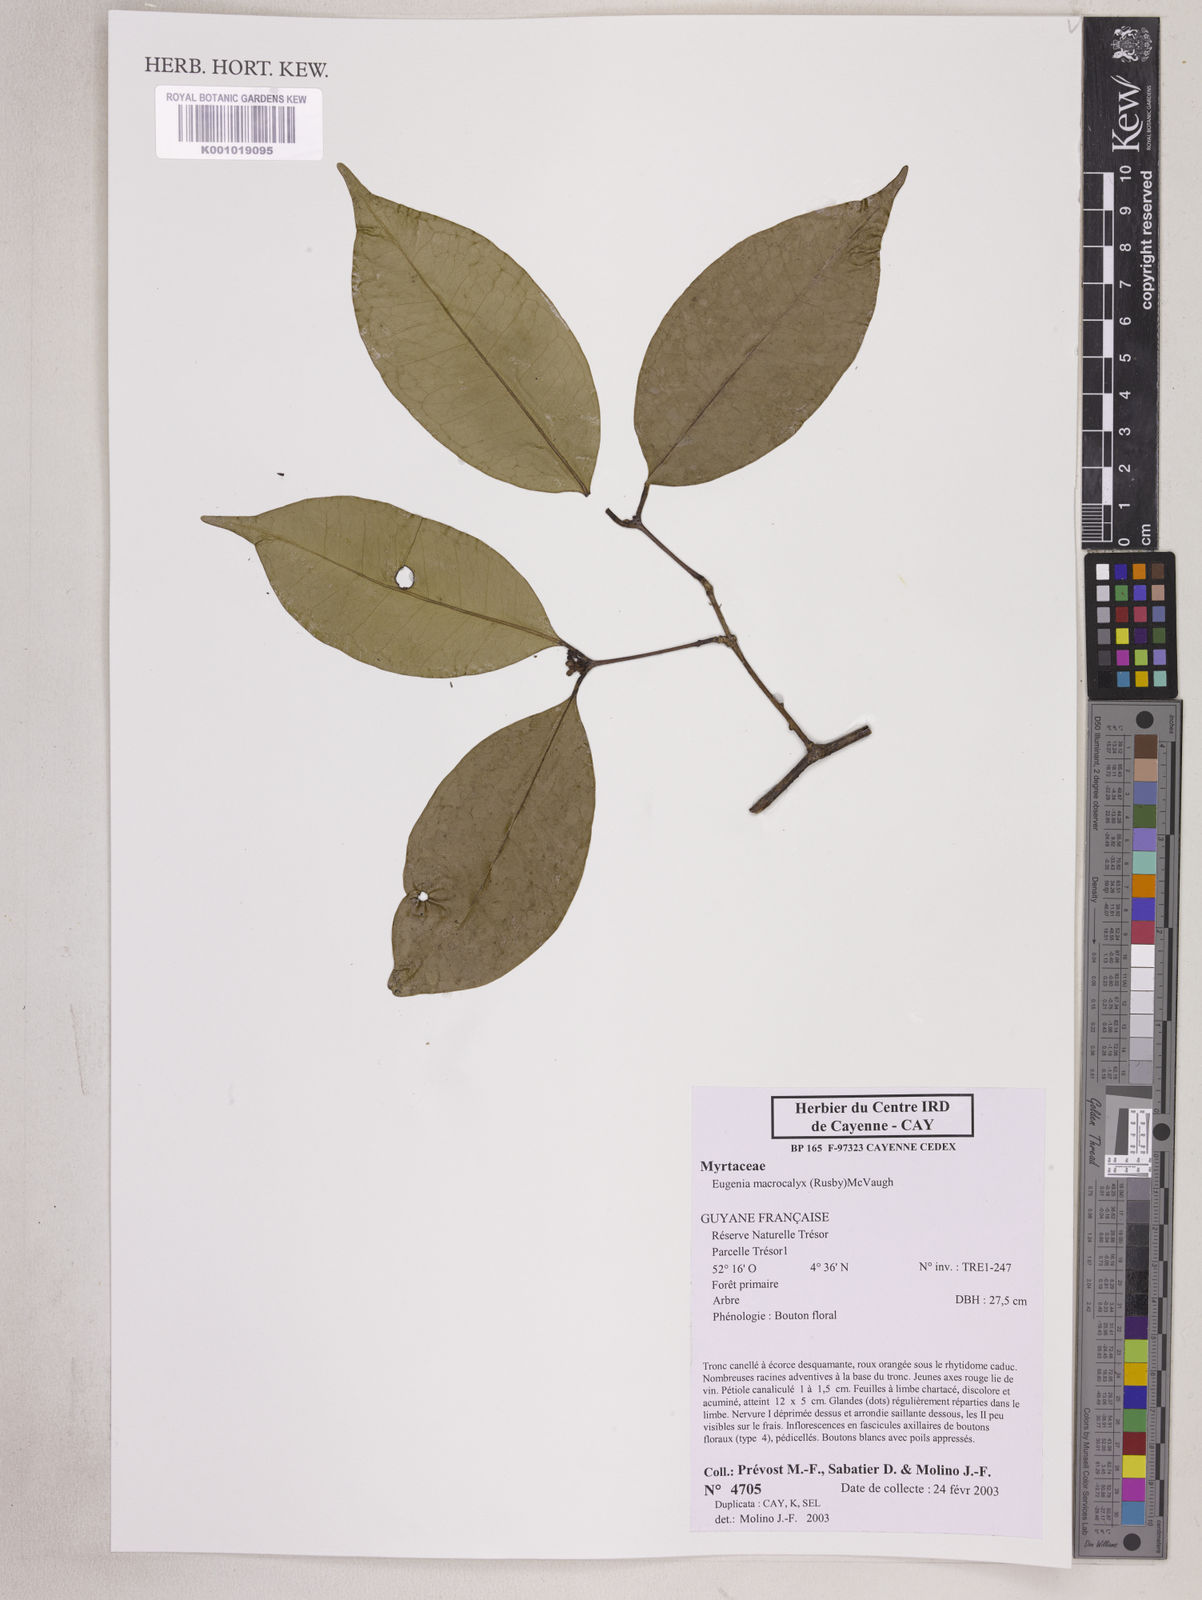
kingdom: Plantae
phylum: Tracheophyta
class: Magnoliopsida
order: Myrtales
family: Myrtaceae
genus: Eugenia
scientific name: Eugenia wentii
